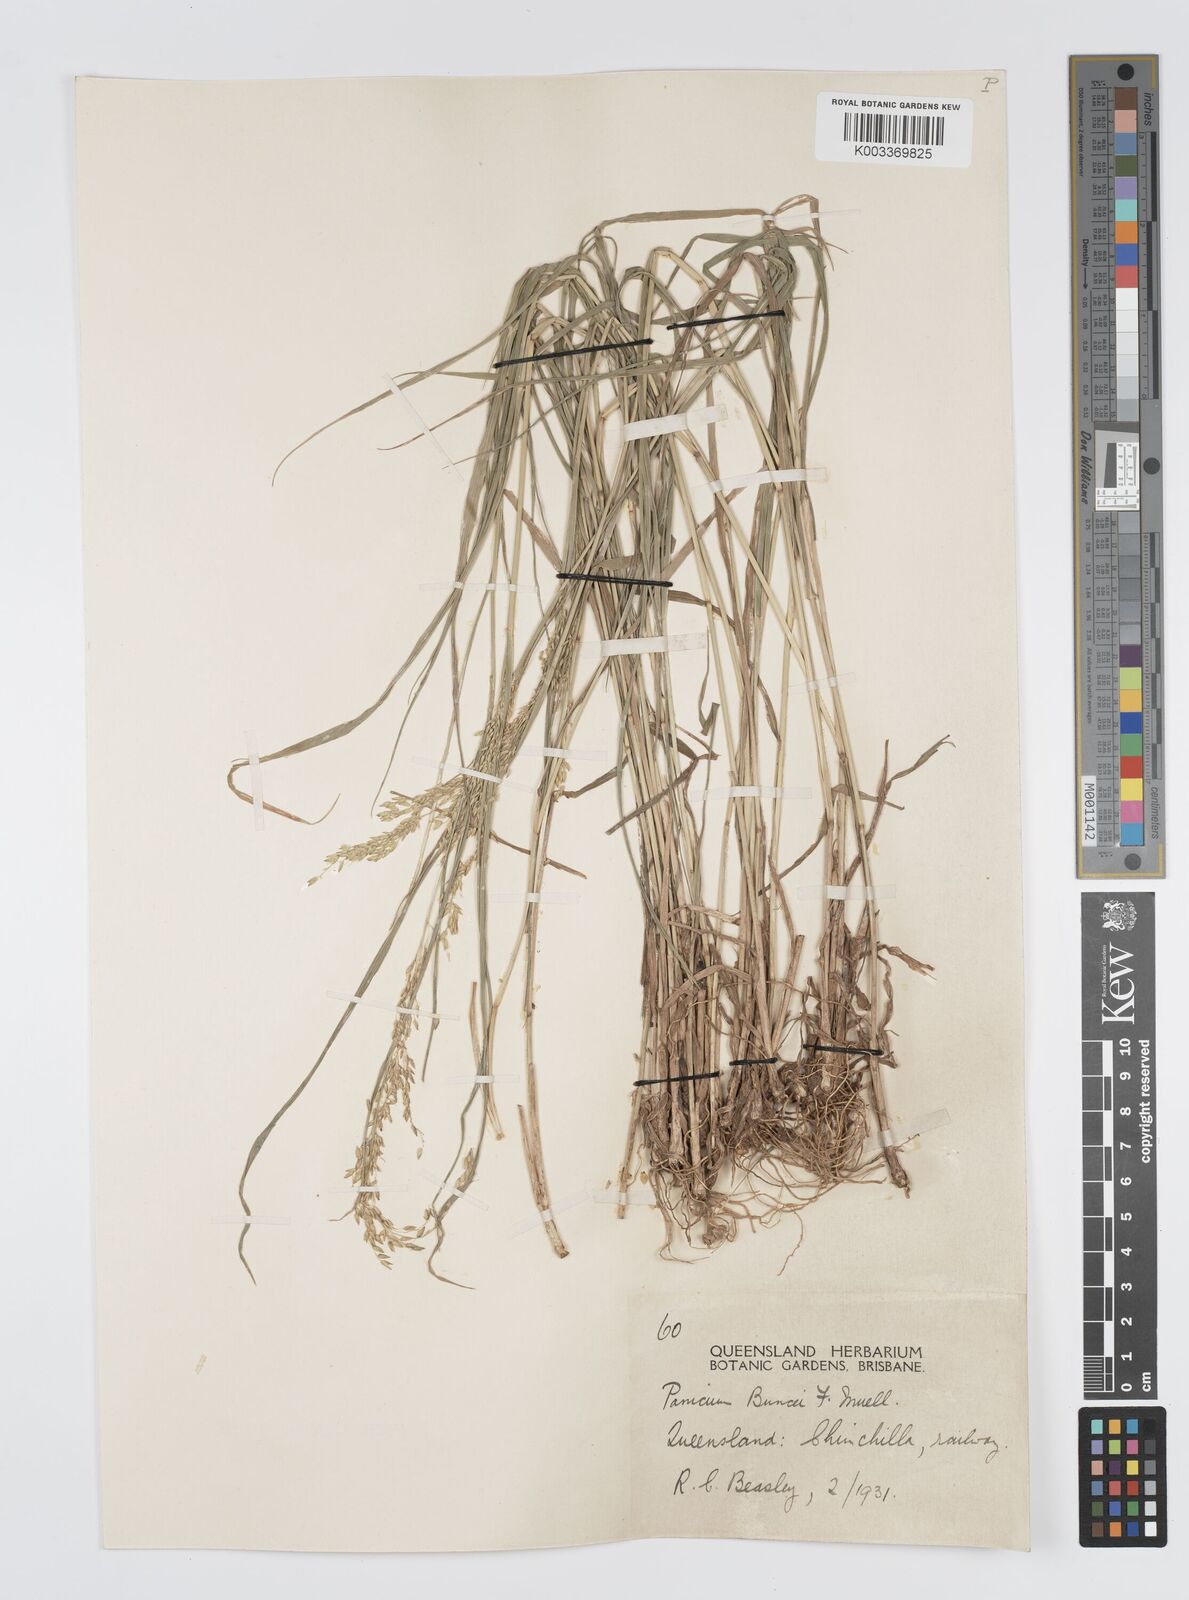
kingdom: Plantae
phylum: Tracheophyta
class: Liliopsida
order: Poales
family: Poaceae
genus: Panicum
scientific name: Panicum buncei
